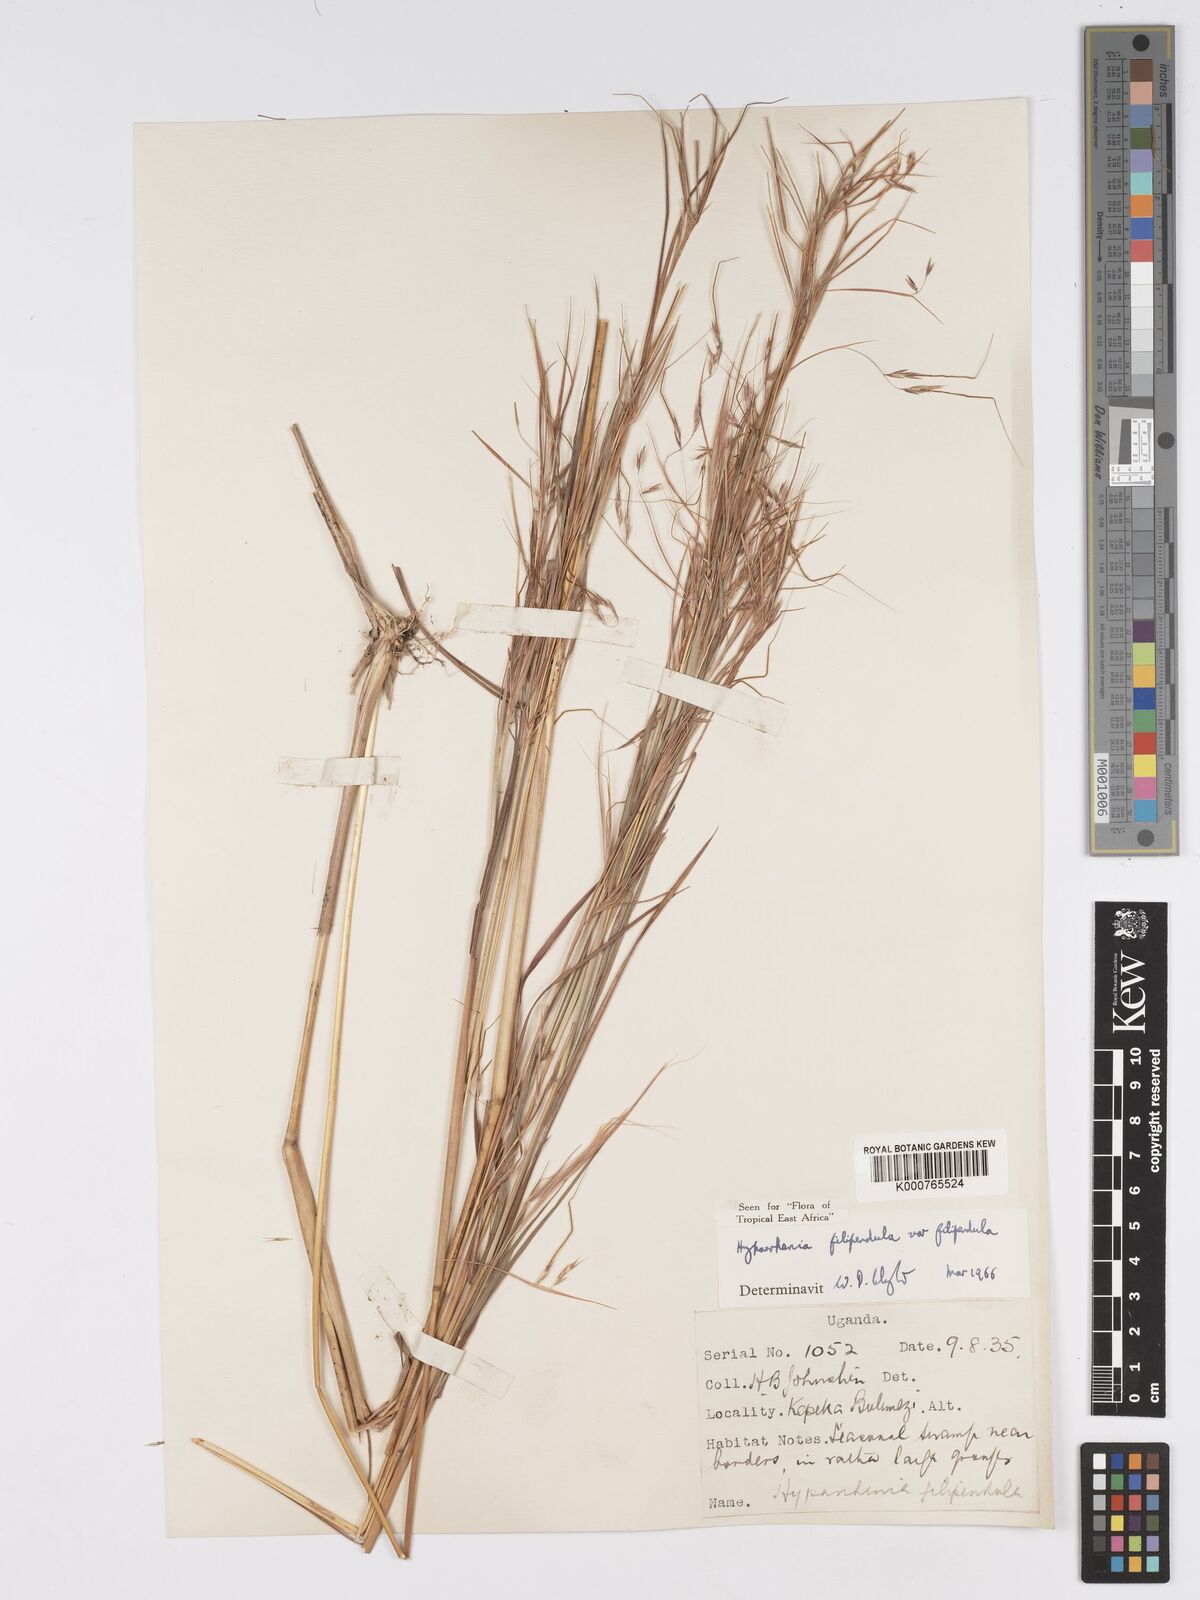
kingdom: Plantae
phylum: Tracheophyta
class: Liliopsida
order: Poales
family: Poaceae
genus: Hyparrhenia
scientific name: Hyparrhenia filipendula
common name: Tambookie grass
